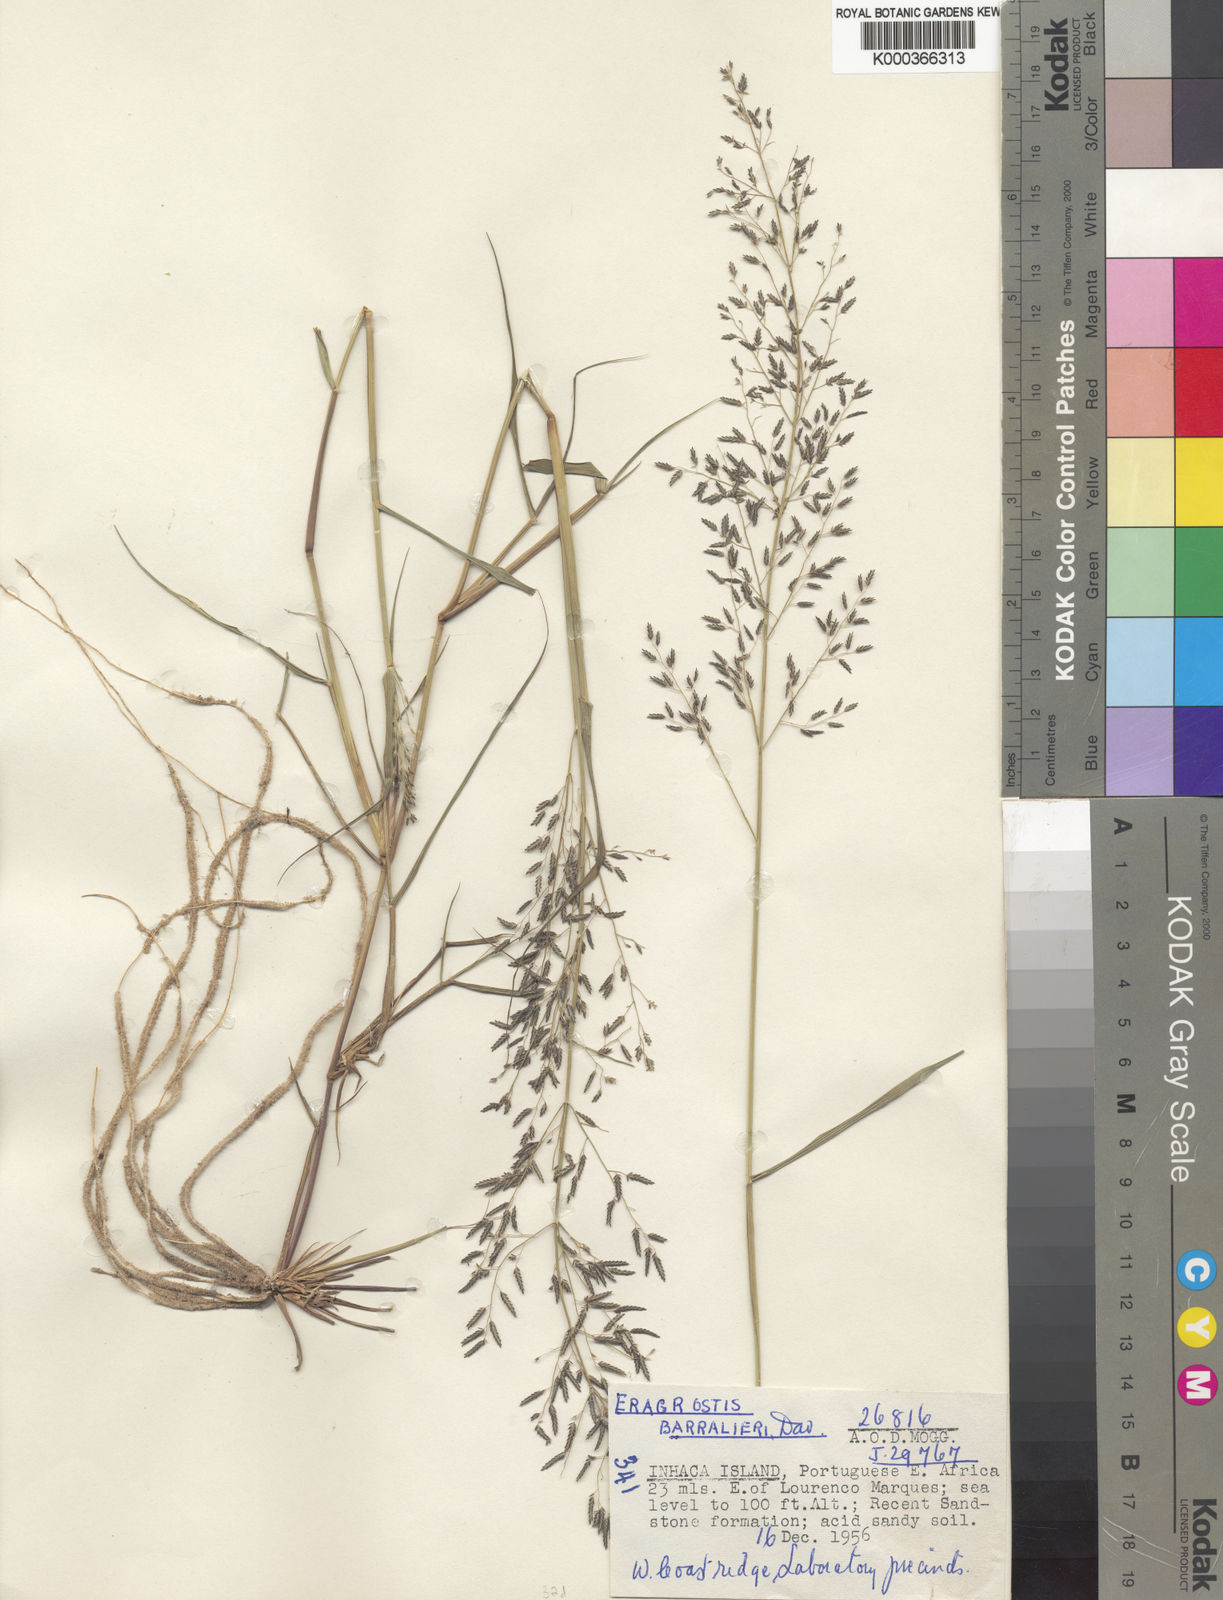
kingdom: Plantae
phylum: Tracheophyta
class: Liliopsida
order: Poales
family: Poaceae
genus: Eragrostis
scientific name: Eragrostis moggii
